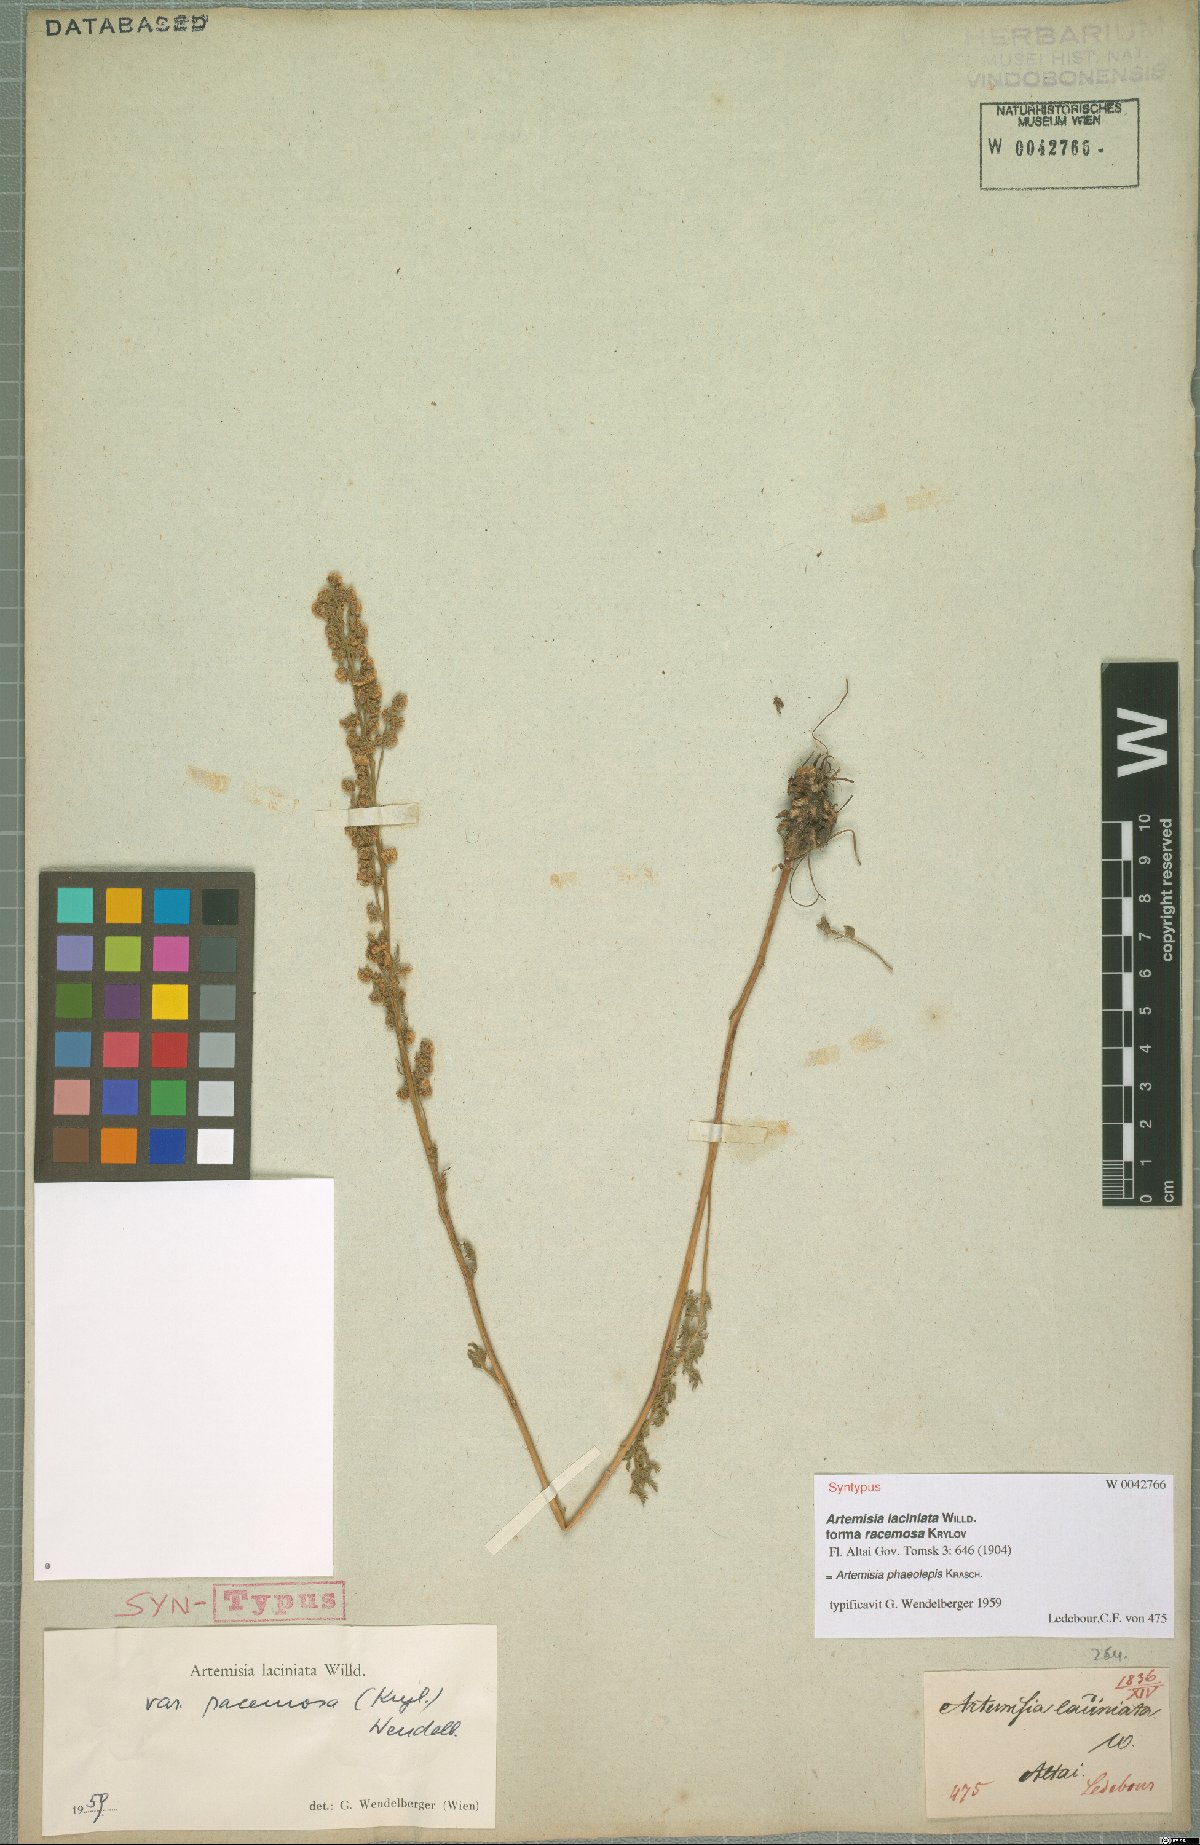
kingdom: Plantae
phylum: Tracheophyta
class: Magnoliopsida
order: Asterales
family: Asteraceae
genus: Artemisia
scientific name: Artemisia phaeolepis
